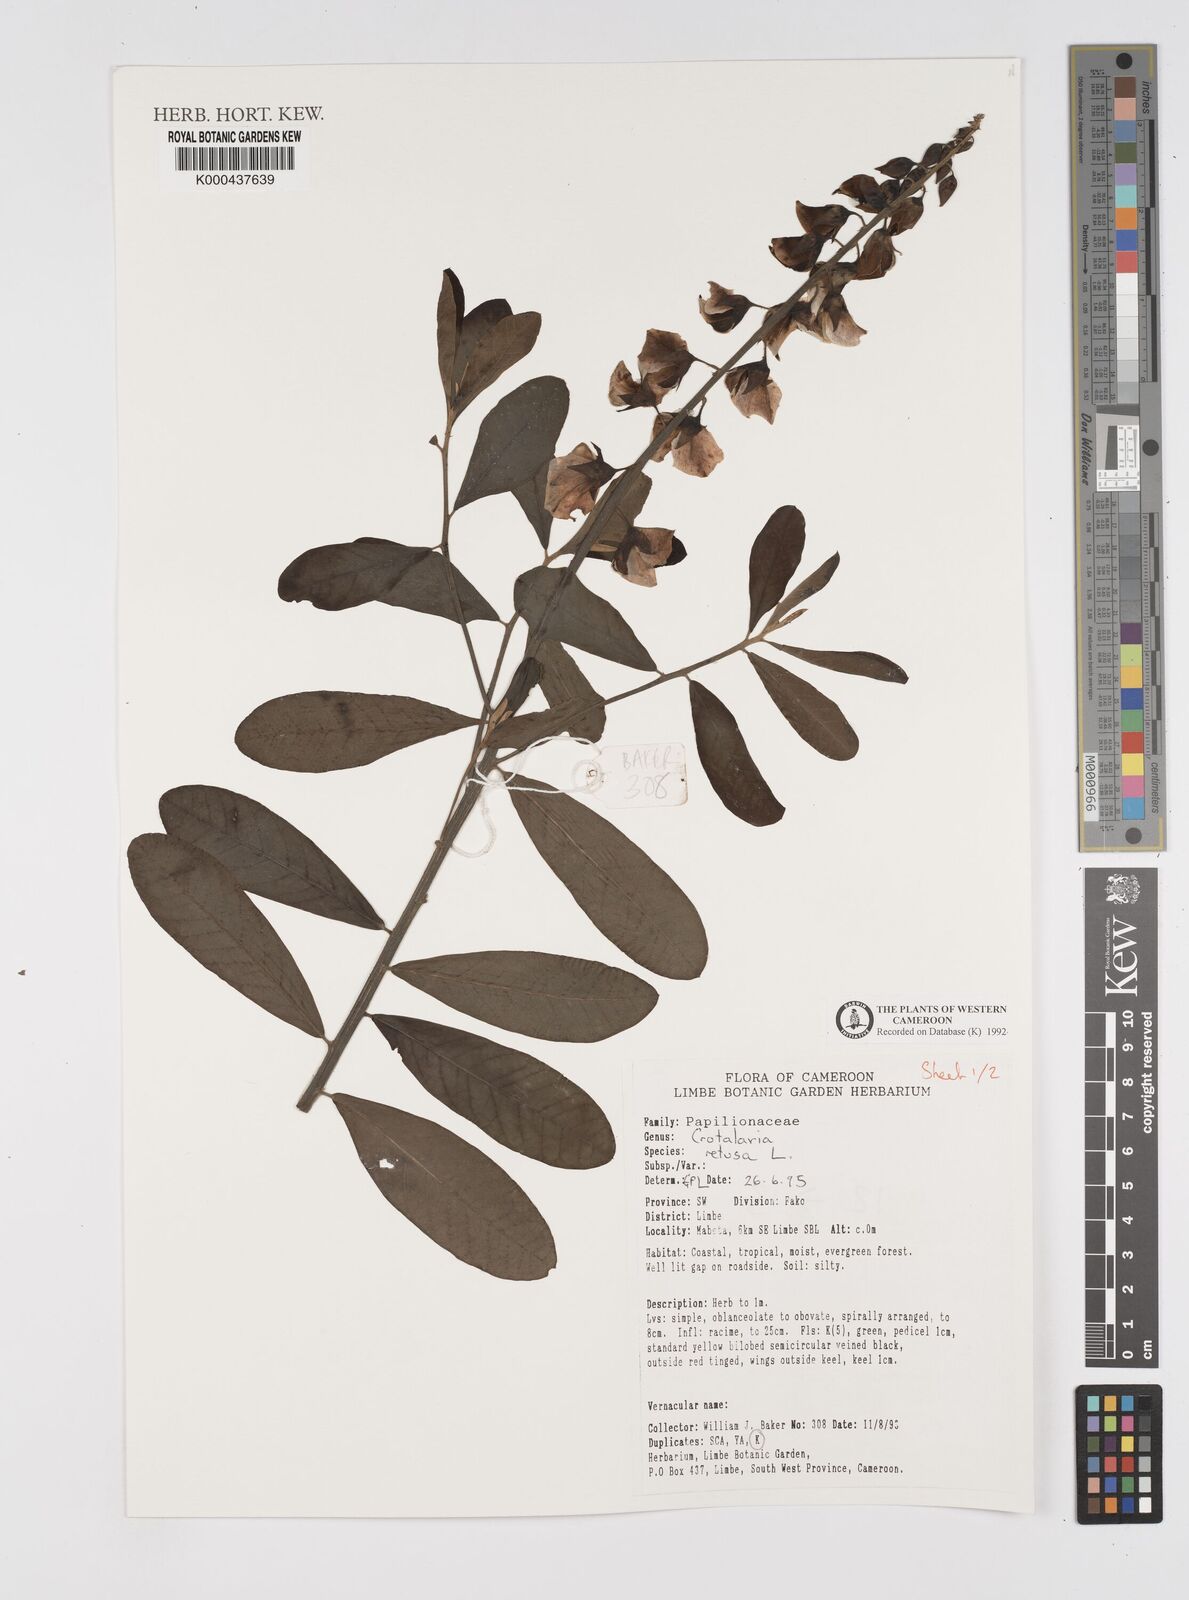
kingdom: Plantae
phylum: Tracheophyta
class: Magnoliopsida
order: Fabales
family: Fabaceae
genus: Crotalaria
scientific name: Crotalaria retusa
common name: Rattleweed
